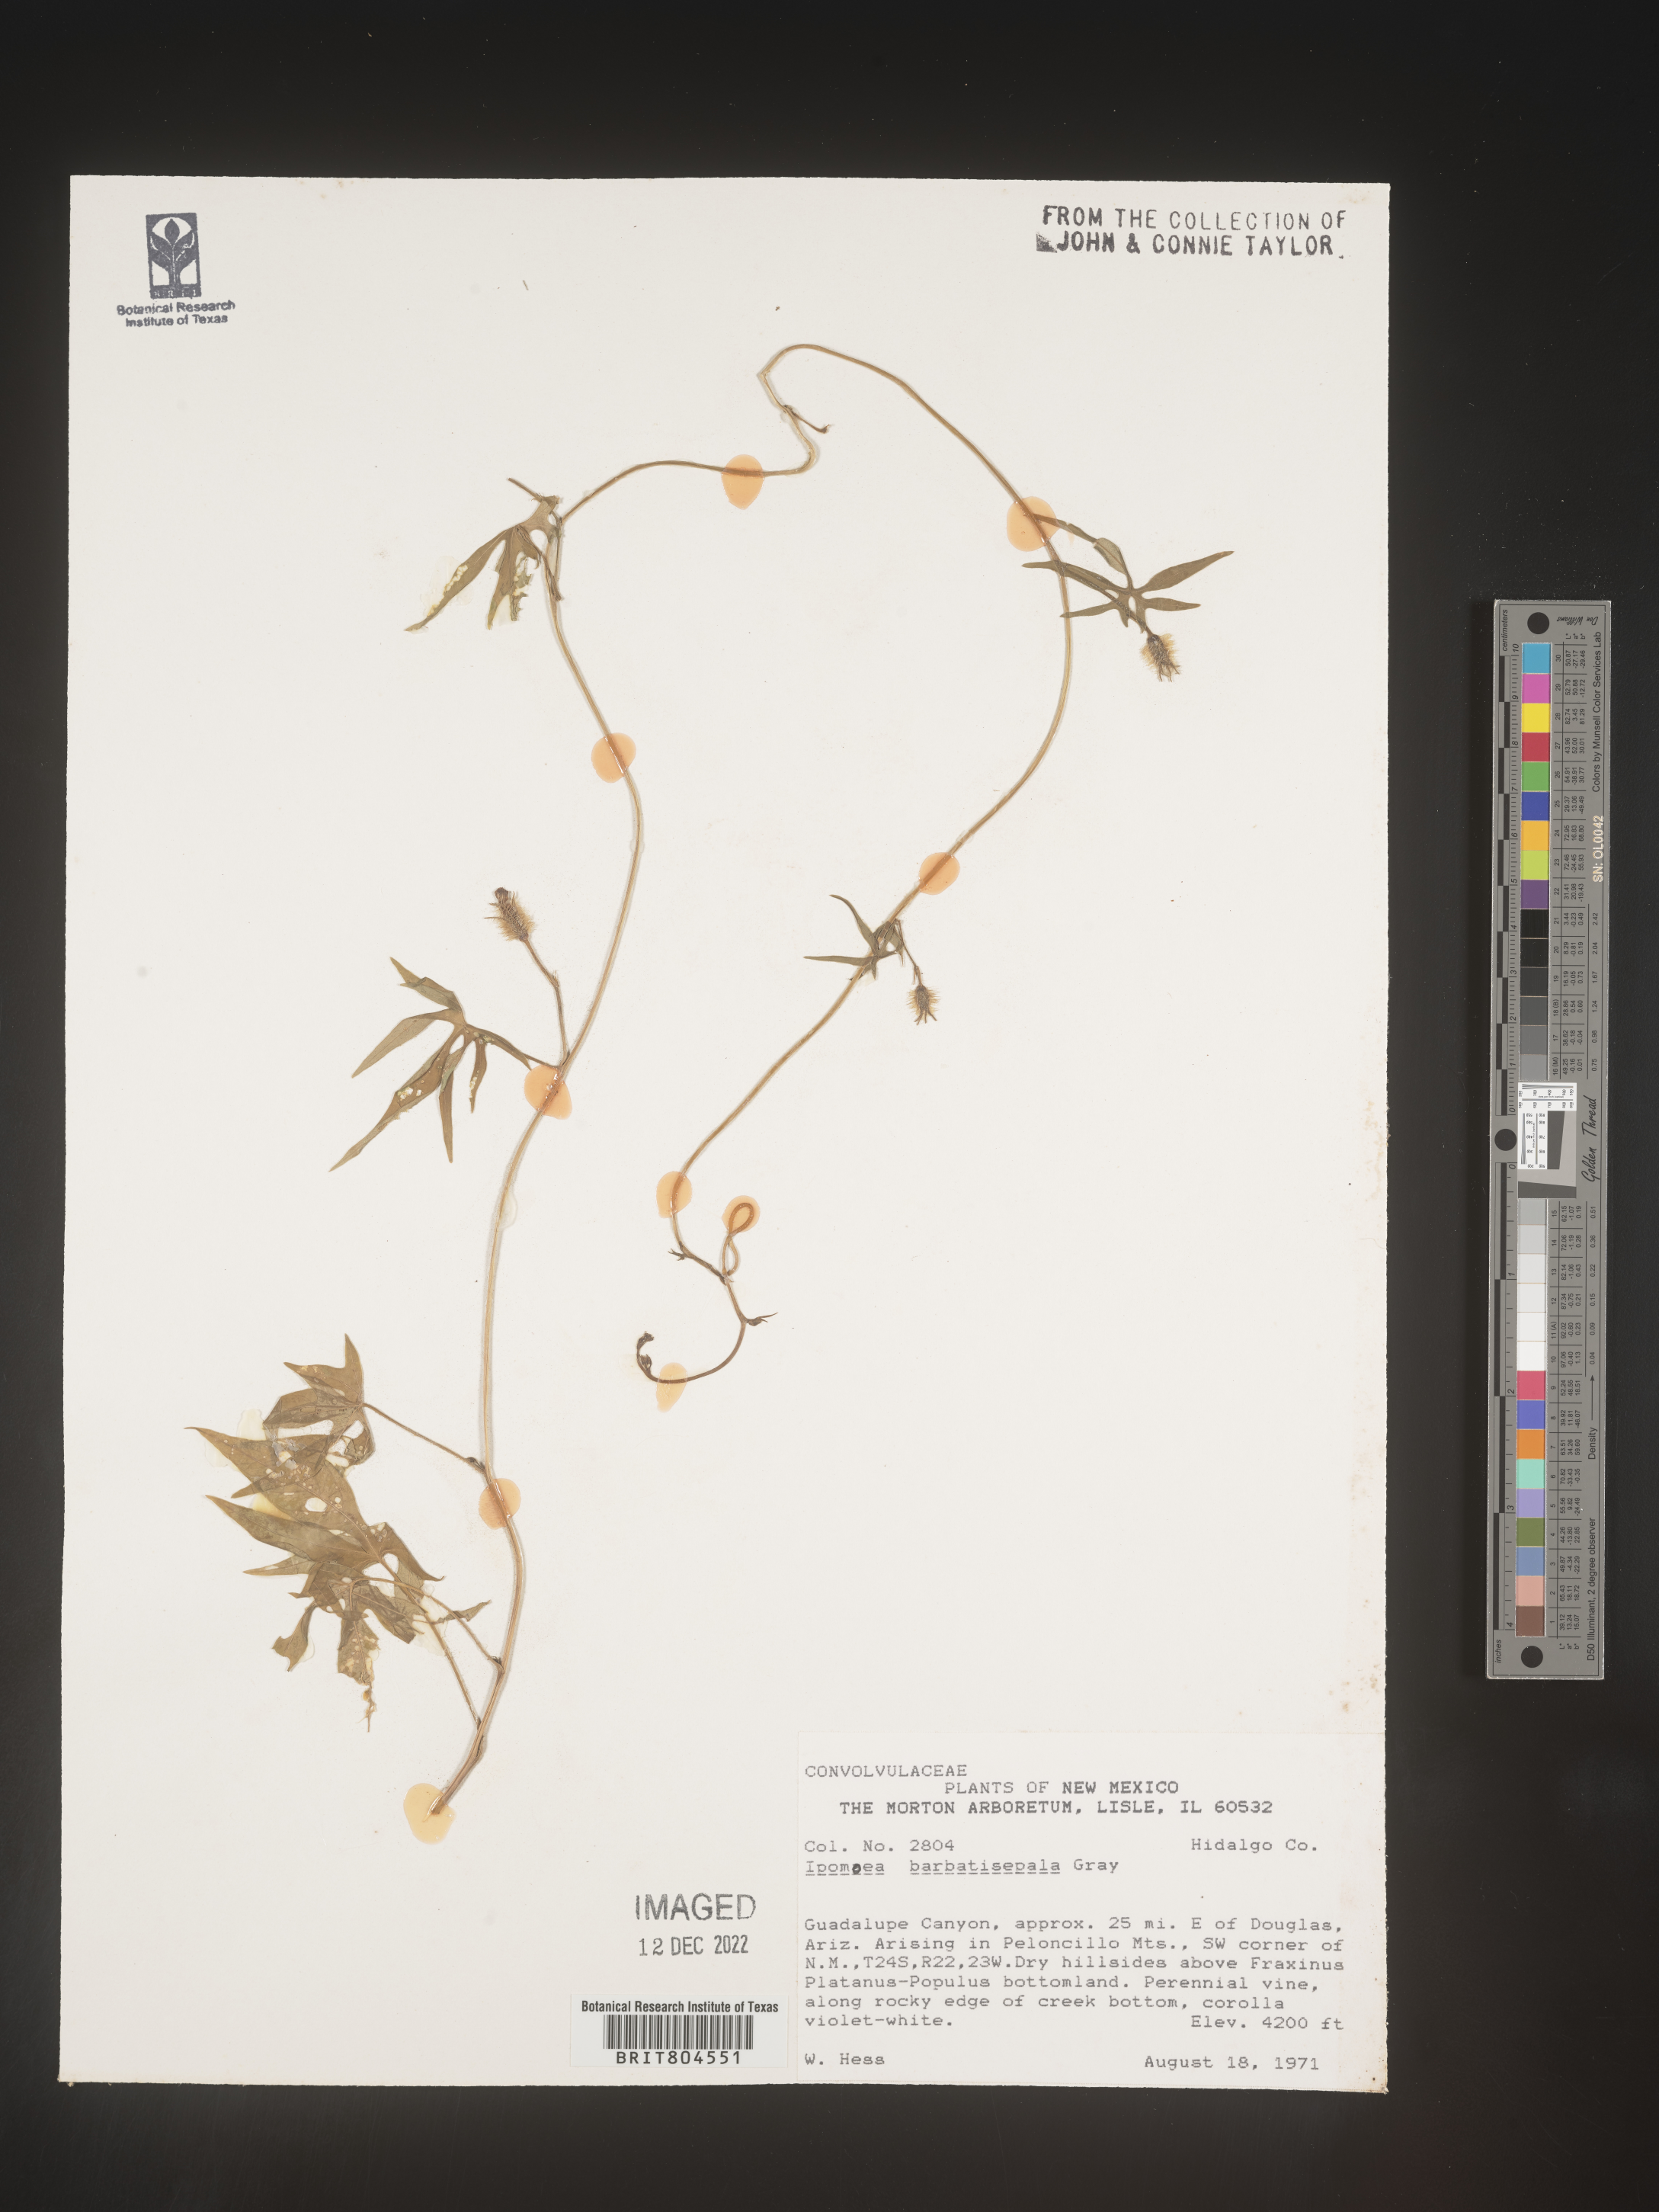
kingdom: Plantae
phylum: Tracheophyta
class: Magnoliopsida
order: Solanales
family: Convolvulaceae
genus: Ipomoea
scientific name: Ipomoea barbatisepala
